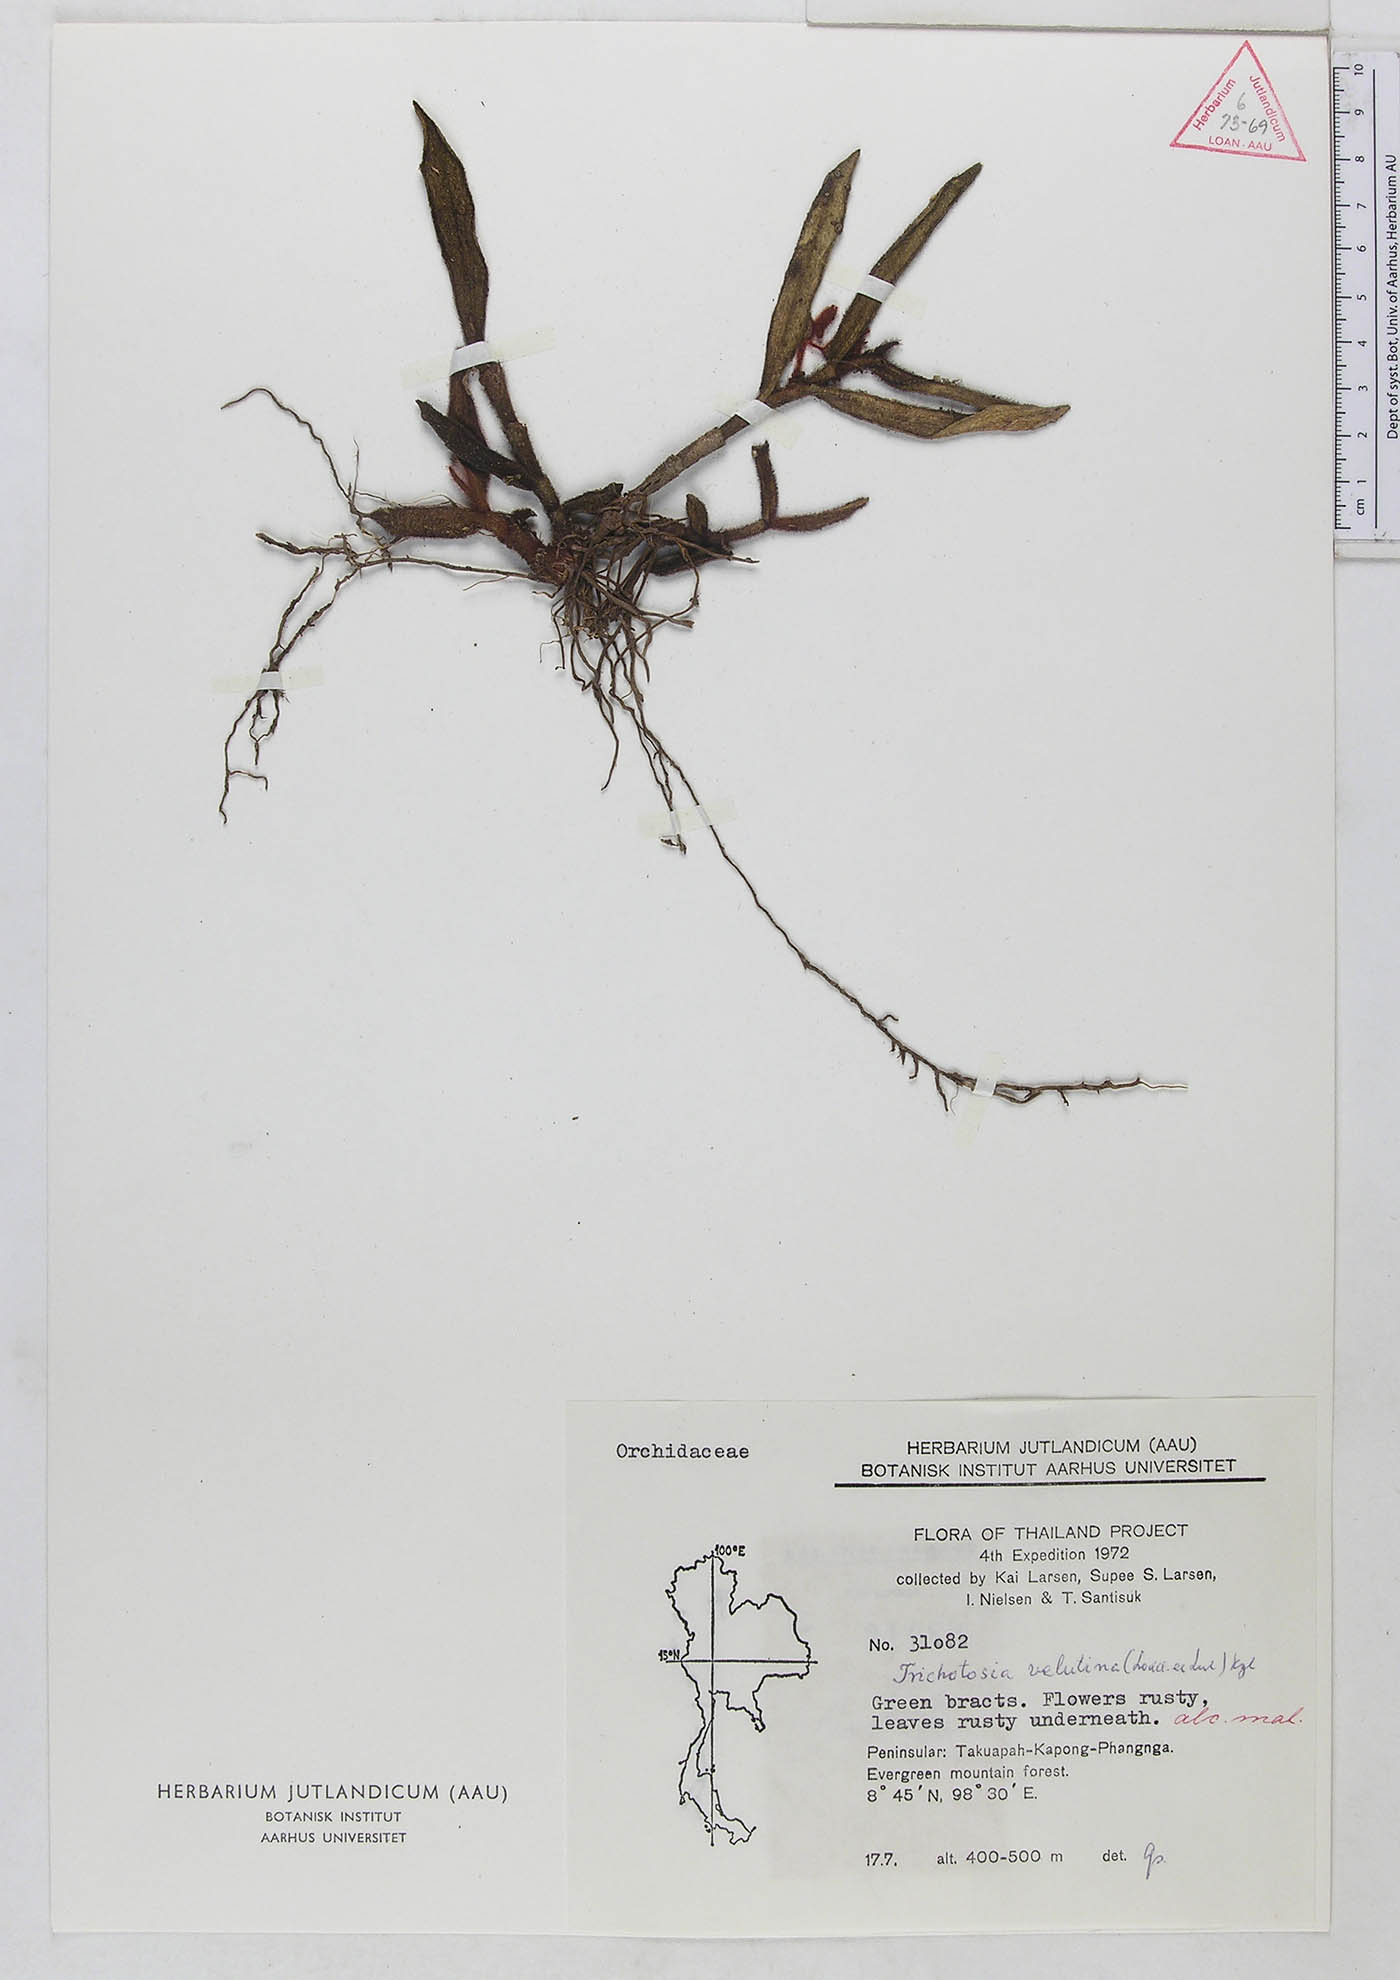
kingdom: Plantae
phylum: Tracheophyta
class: Liliopsida
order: Asparagales
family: Orchidaceae
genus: Trichotosia
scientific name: Trichotosia velutina
